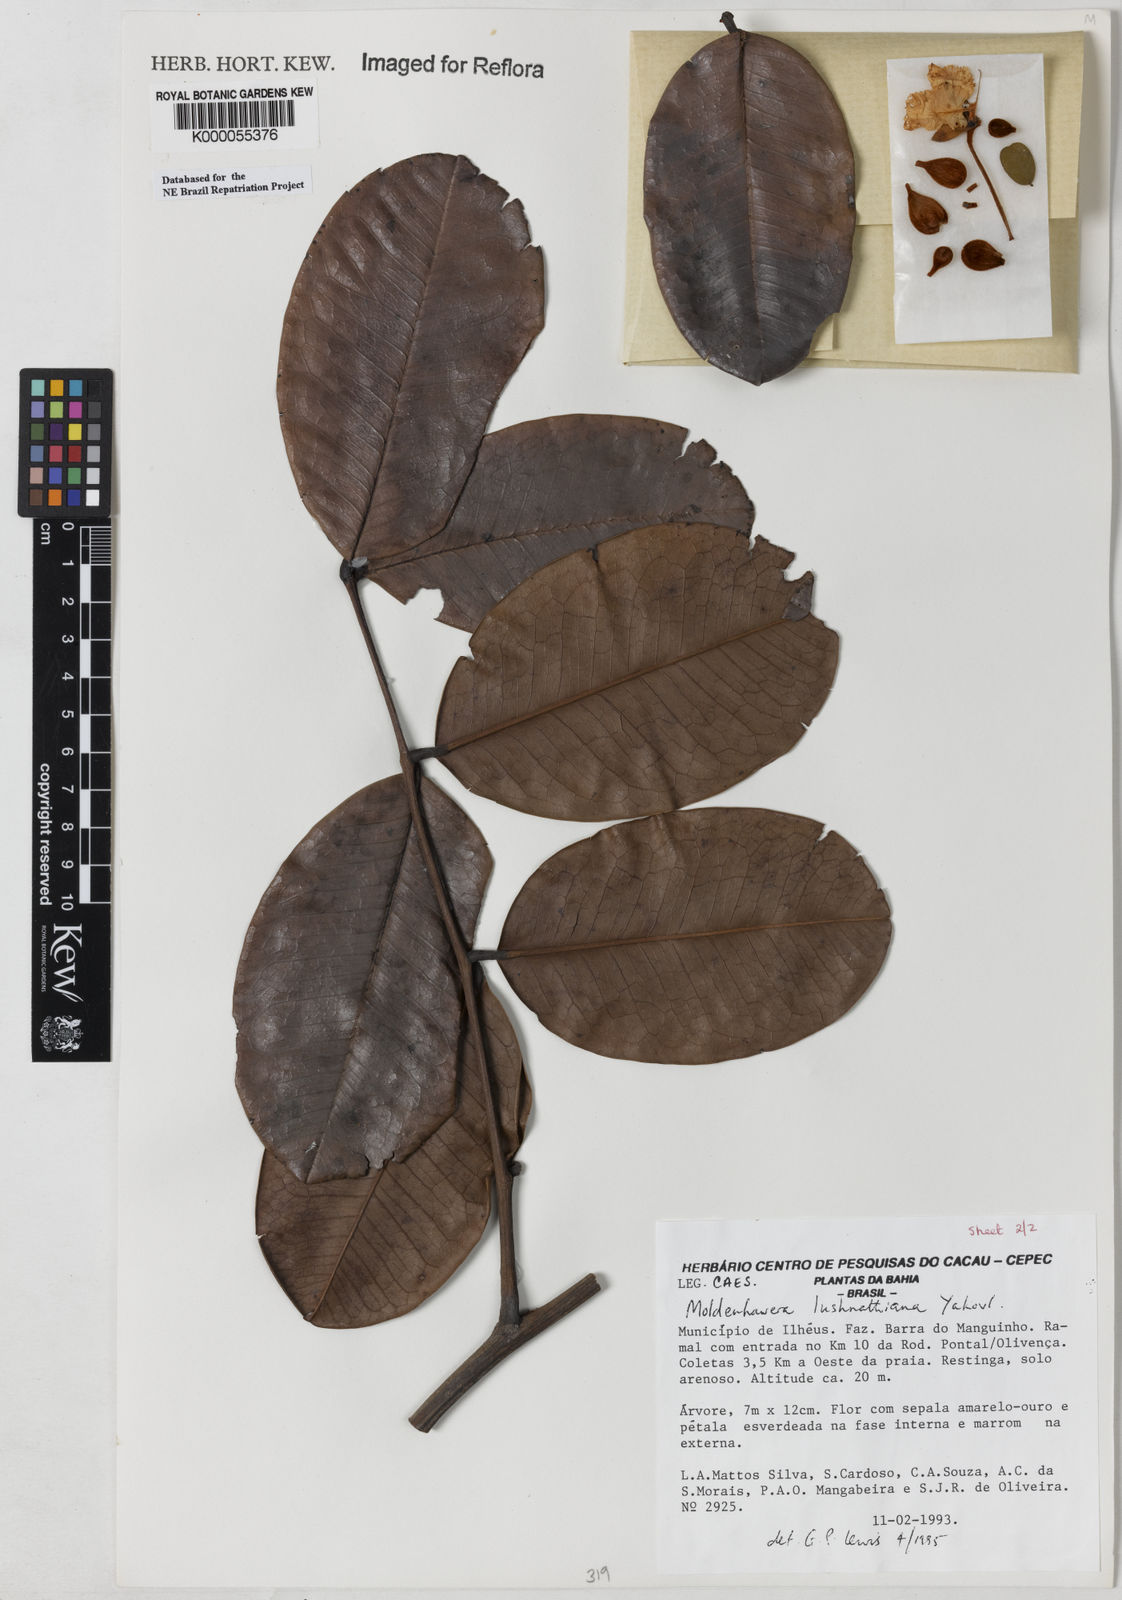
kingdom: Plantae
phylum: Tracheophyta
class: Magnoliopsida
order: Fabales
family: Fabaceae
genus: Moldenhawera
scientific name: Moldenhawera lushnathiana
